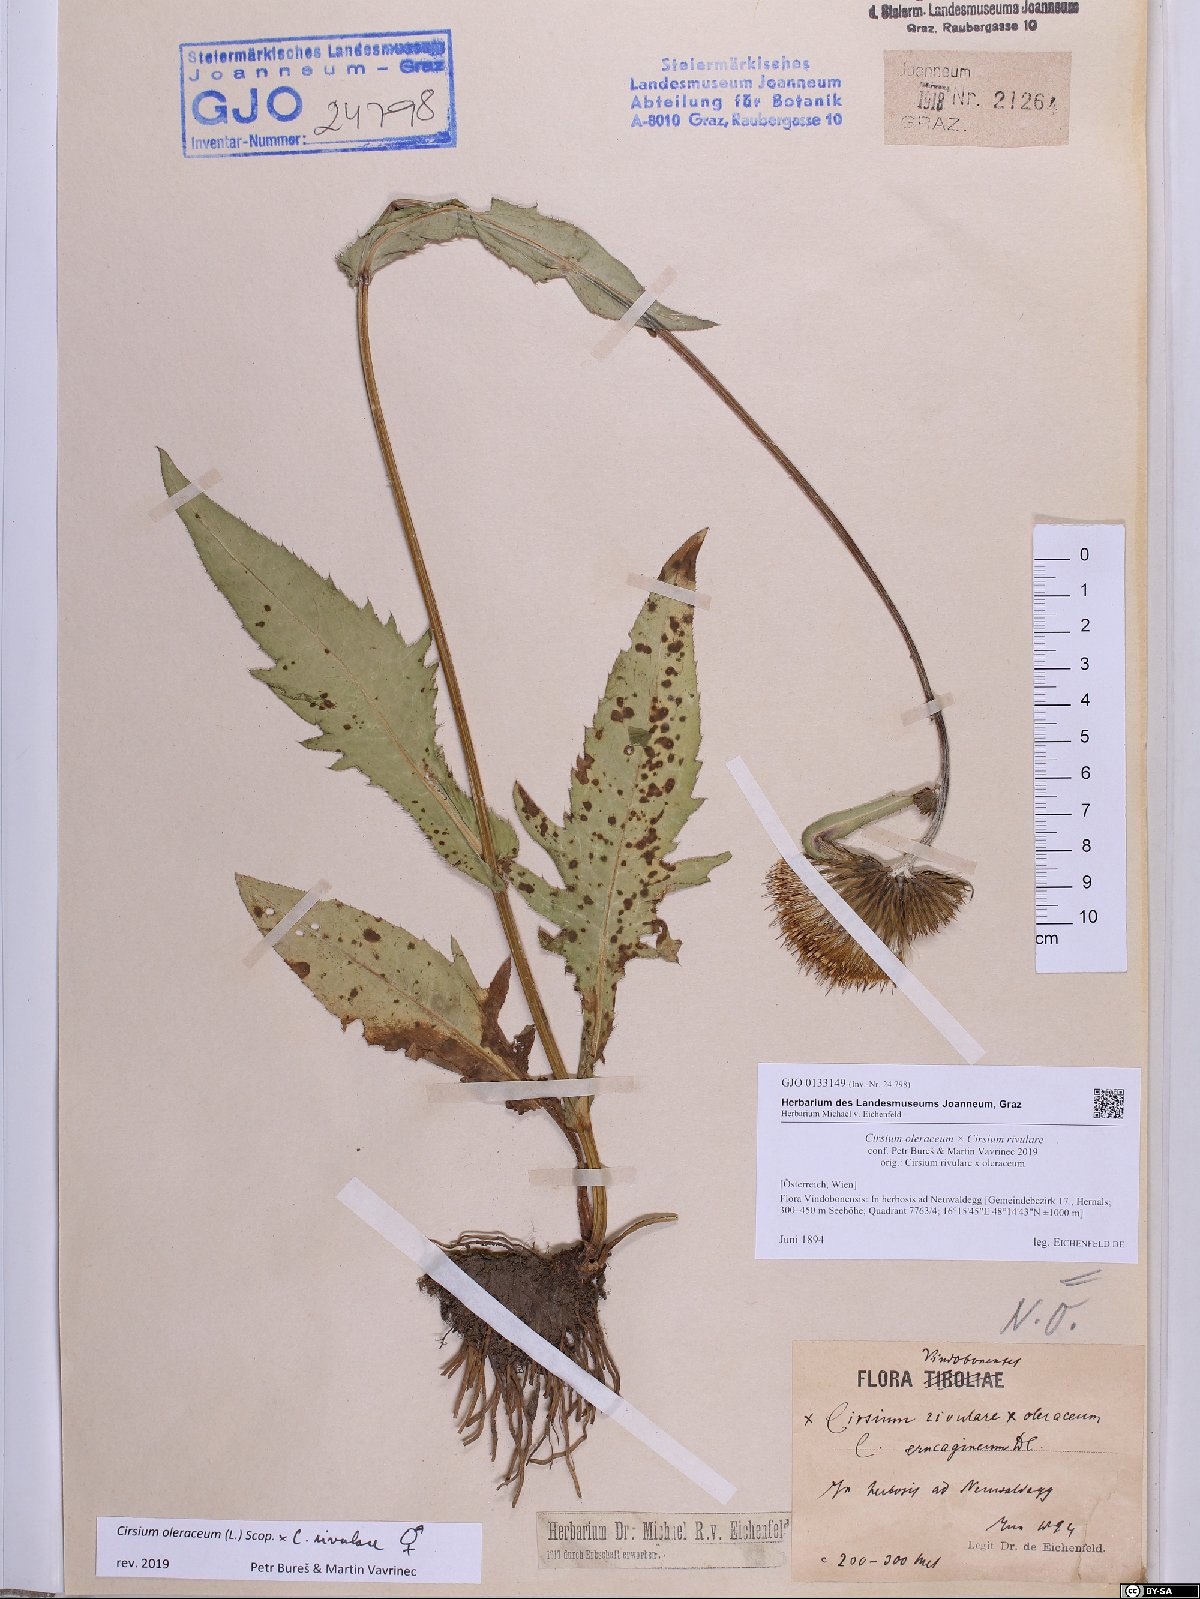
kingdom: Plantae
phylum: Tracheophyta
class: Magnoliopsida
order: Asterales
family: Asteraceae
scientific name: Asteraceae
